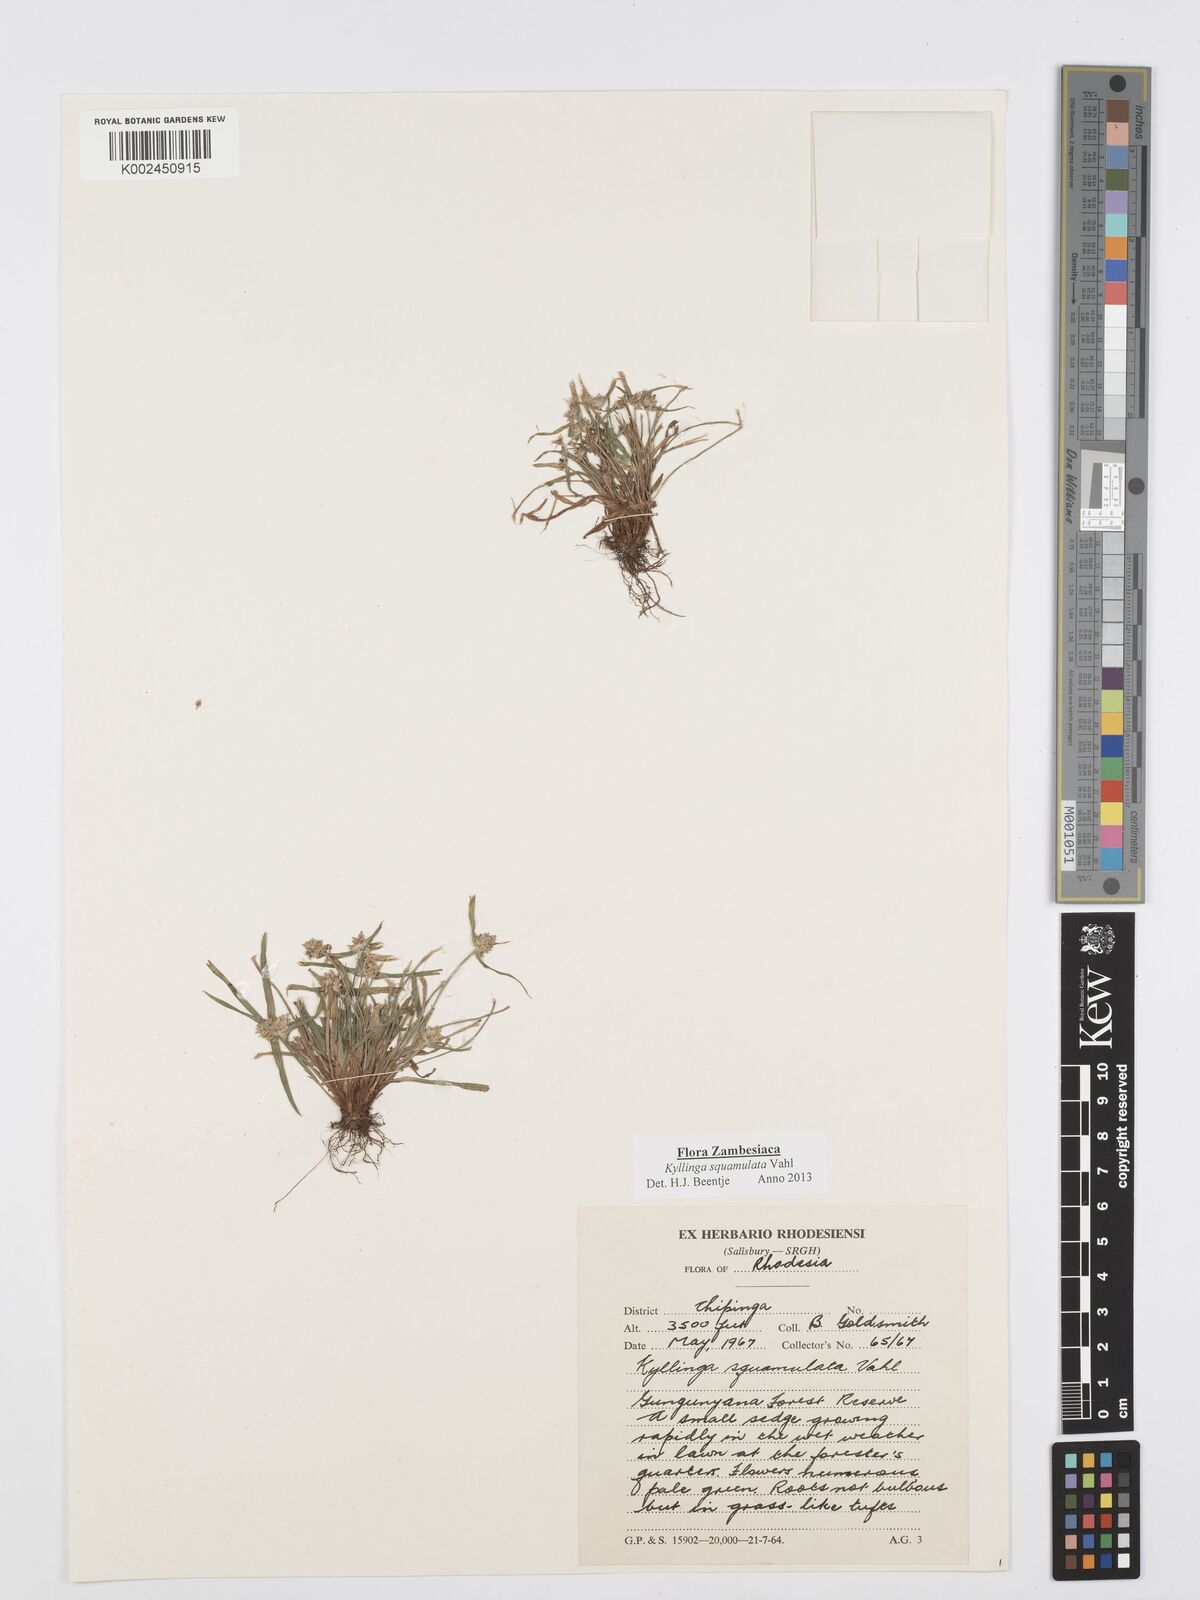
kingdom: Plantae
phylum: Tracheophyta
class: Liliopsida
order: Poales
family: Cyperaceae
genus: Cyperus
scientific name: Cyperus distans
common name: Slender cyperus
